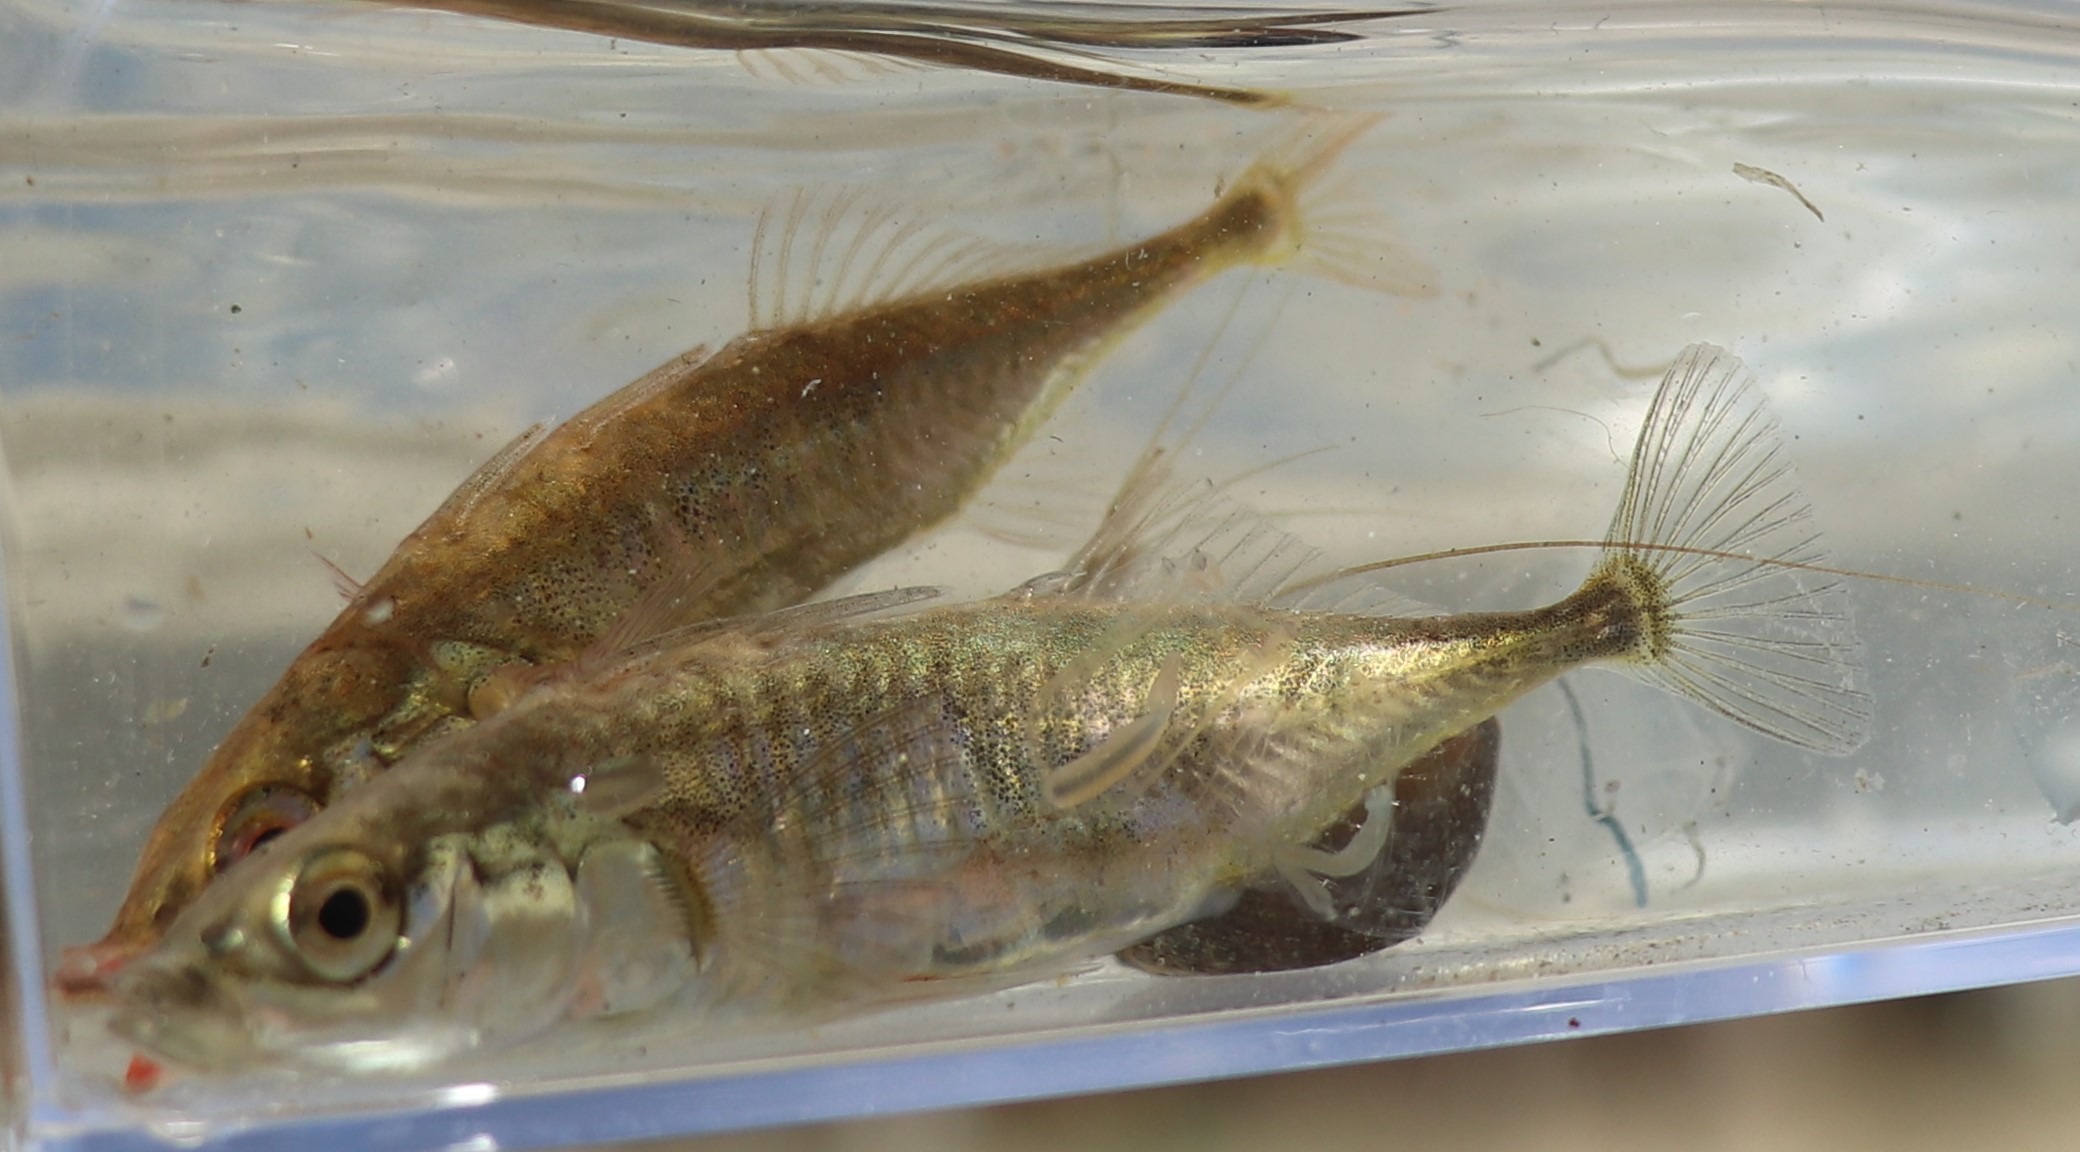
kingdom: Animalia
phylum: Chordata
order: Gasterosteiformes
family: Gasterosteidae
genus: Gasterosteus
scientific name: Gasterosteus aculeatus
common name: Trepigget hundestejle
